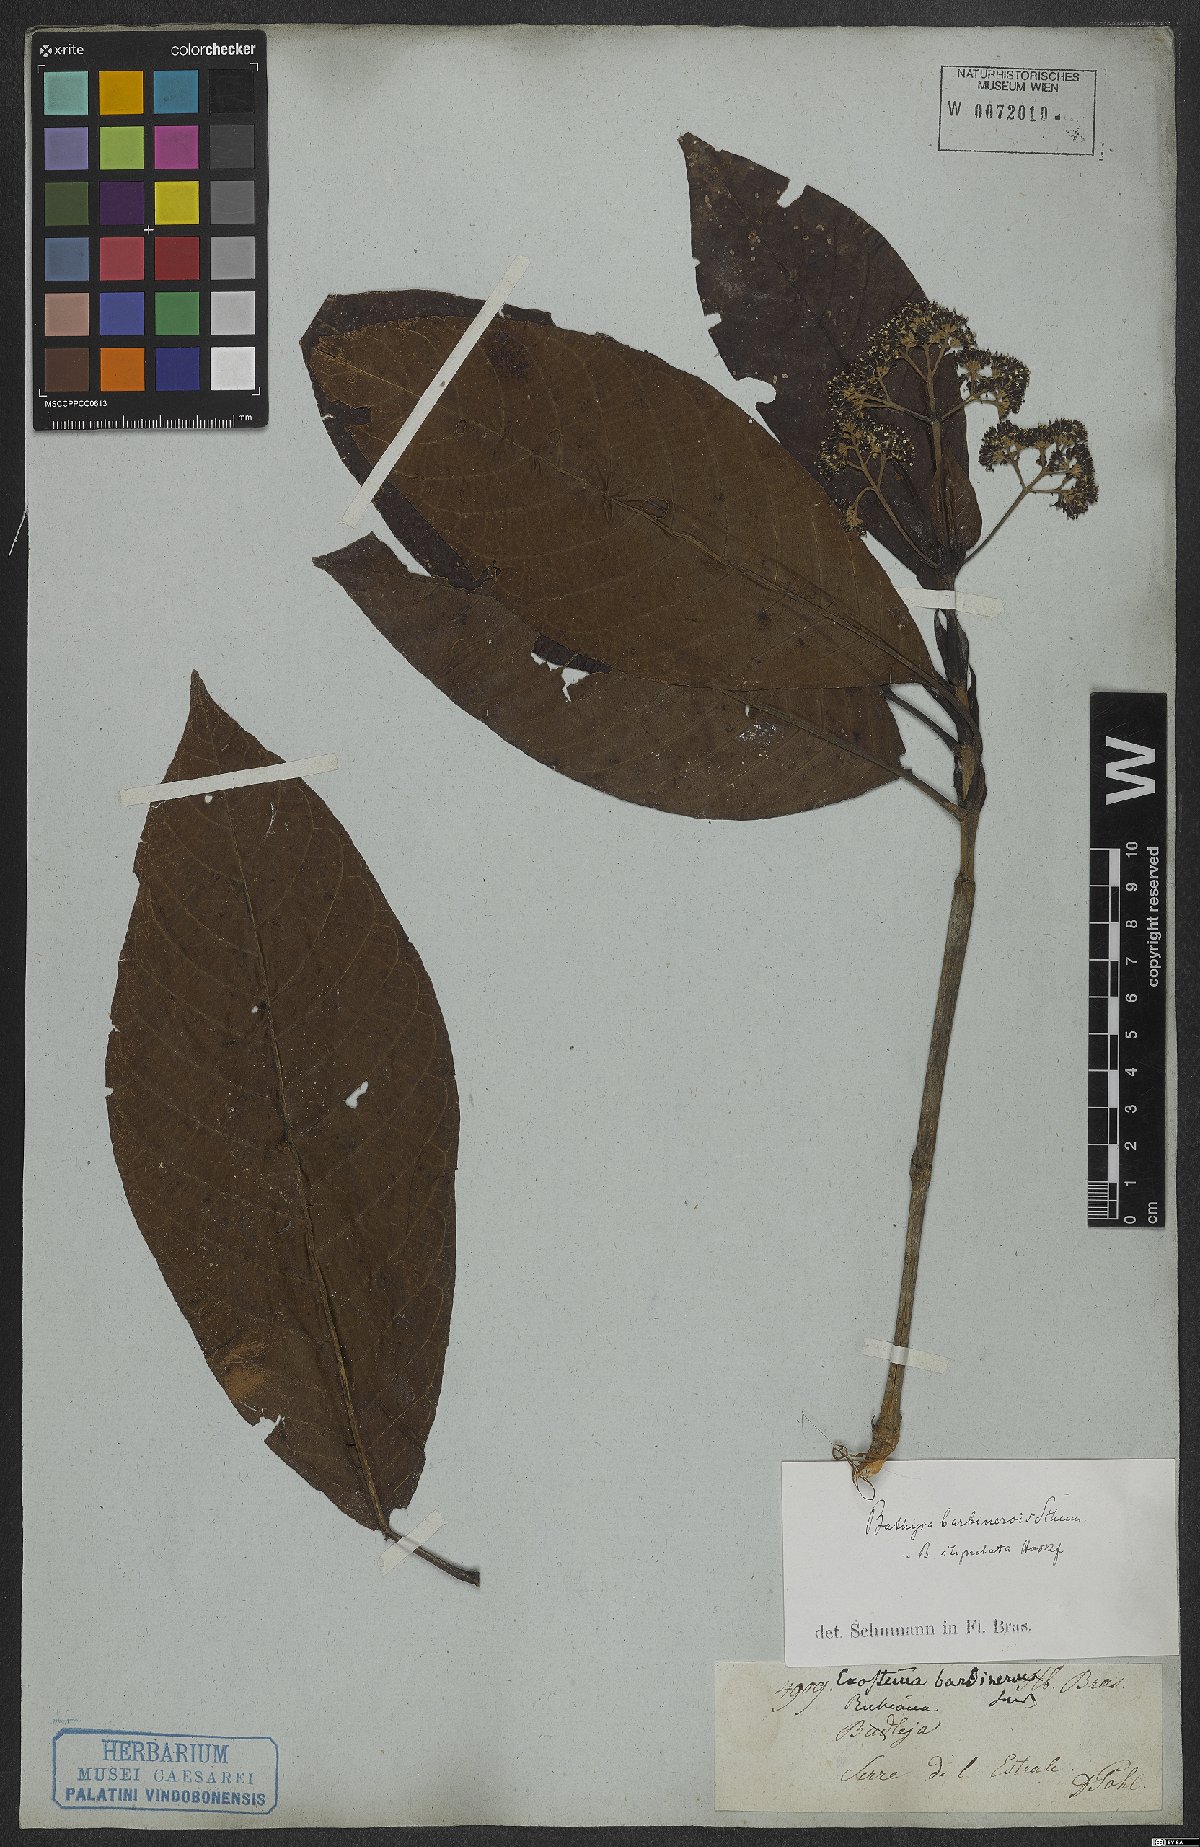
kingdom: Plantae
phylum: Tracheophyta
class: Magnoliopsida
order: Gentianales
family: Rubiaceae
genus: Bathysa
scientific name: Bathysa stipulata
